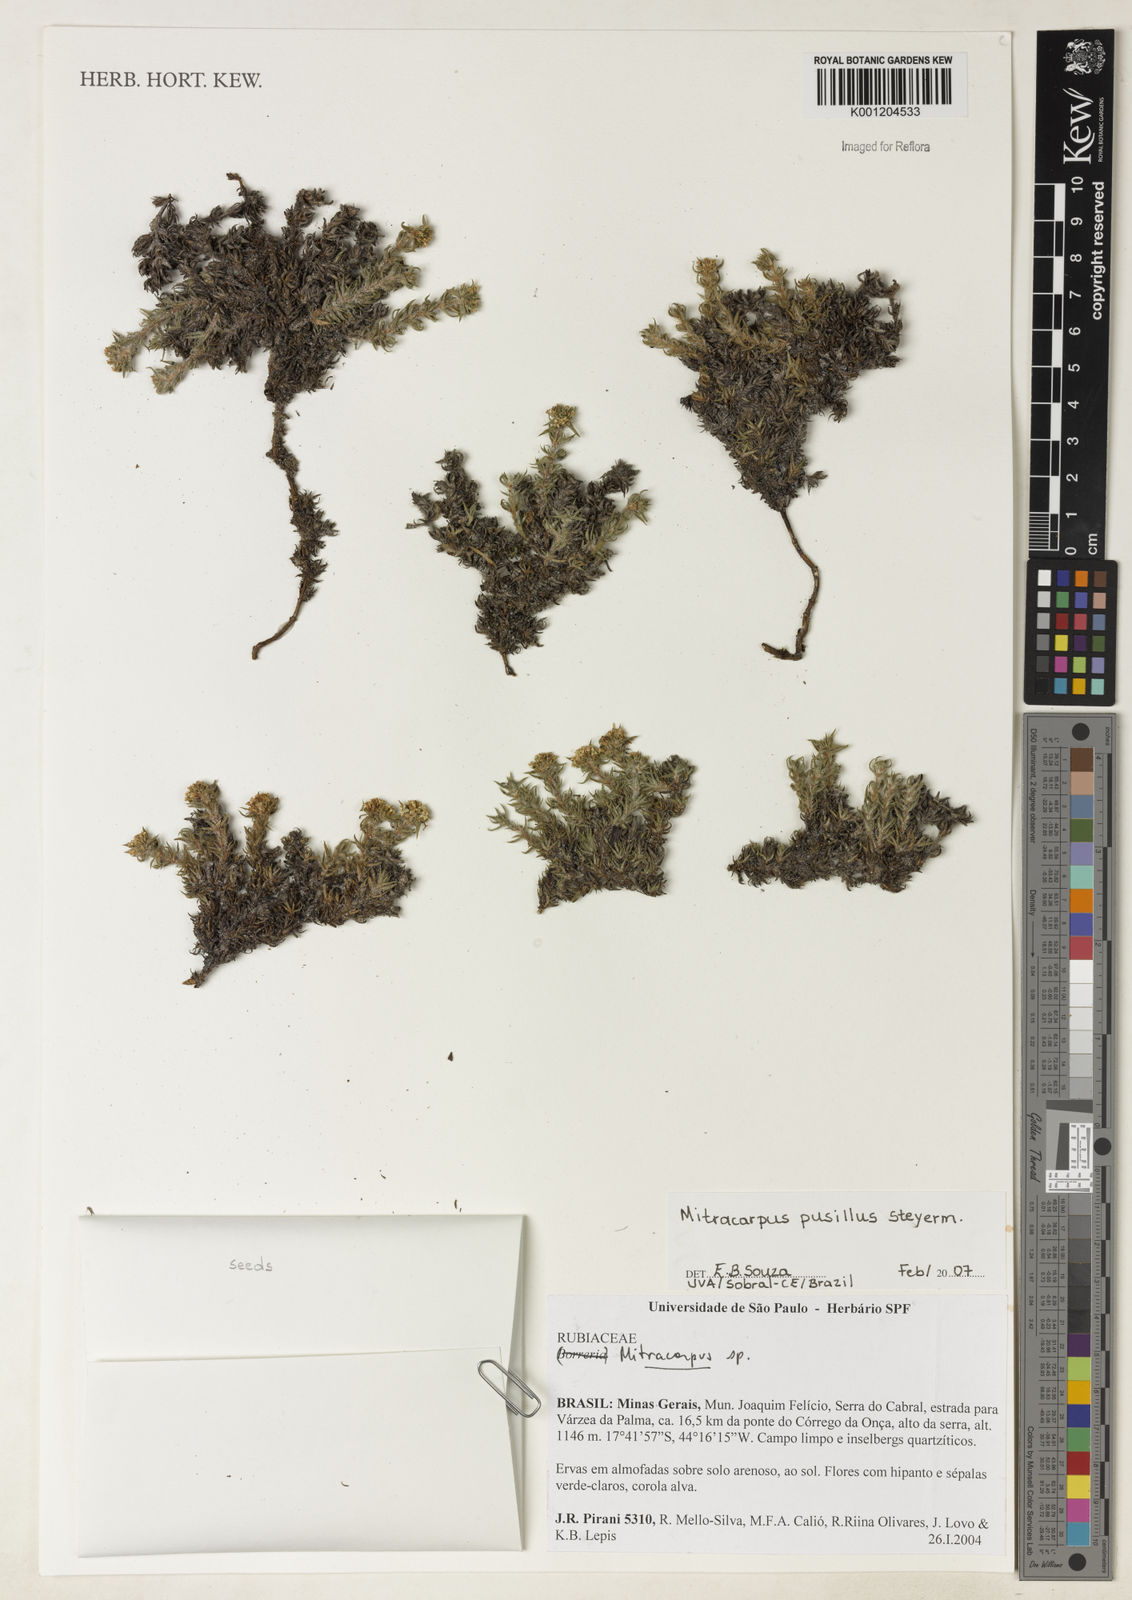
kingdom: Plantae
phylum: Tracheophyta
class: Magnoliopsida
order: Gentianales
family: Rubiaceae
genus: Mitracarpus
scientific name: Mitracarpus pusillus
